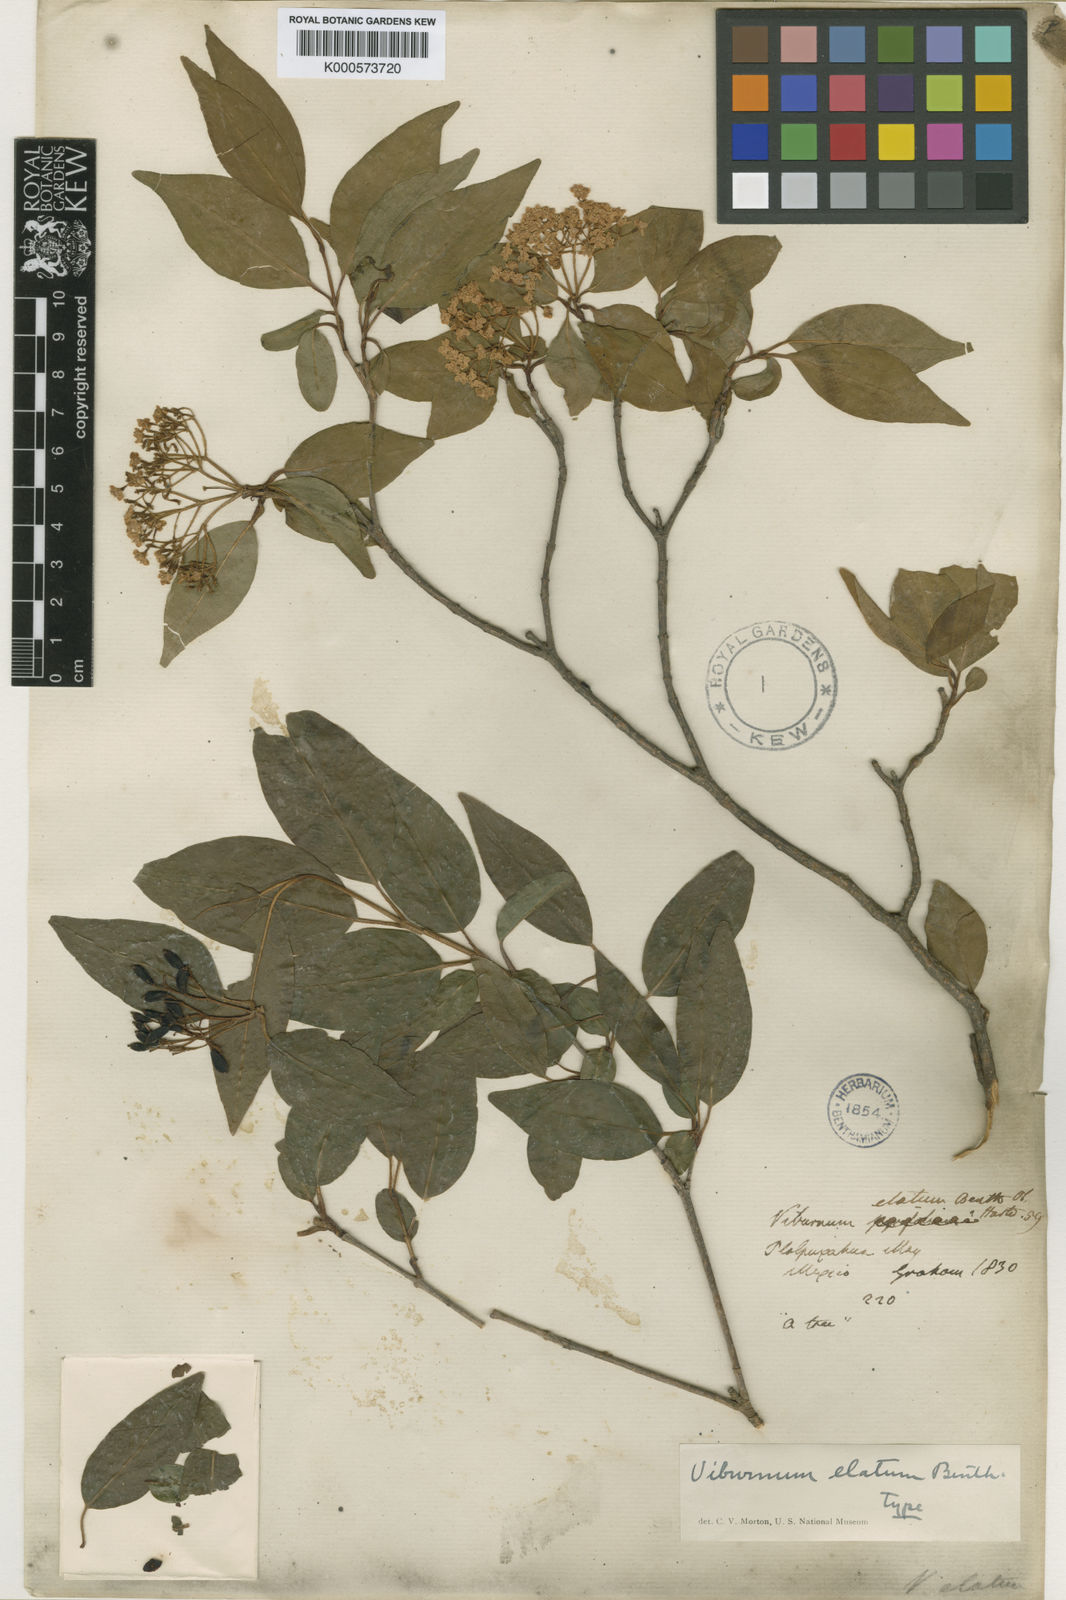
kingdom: Plantae
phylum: Tracheophyta
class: Magnoliopsida
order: Dipsacales
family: Viburnaceae
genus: Viburnum
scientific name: Viburnum elatum
